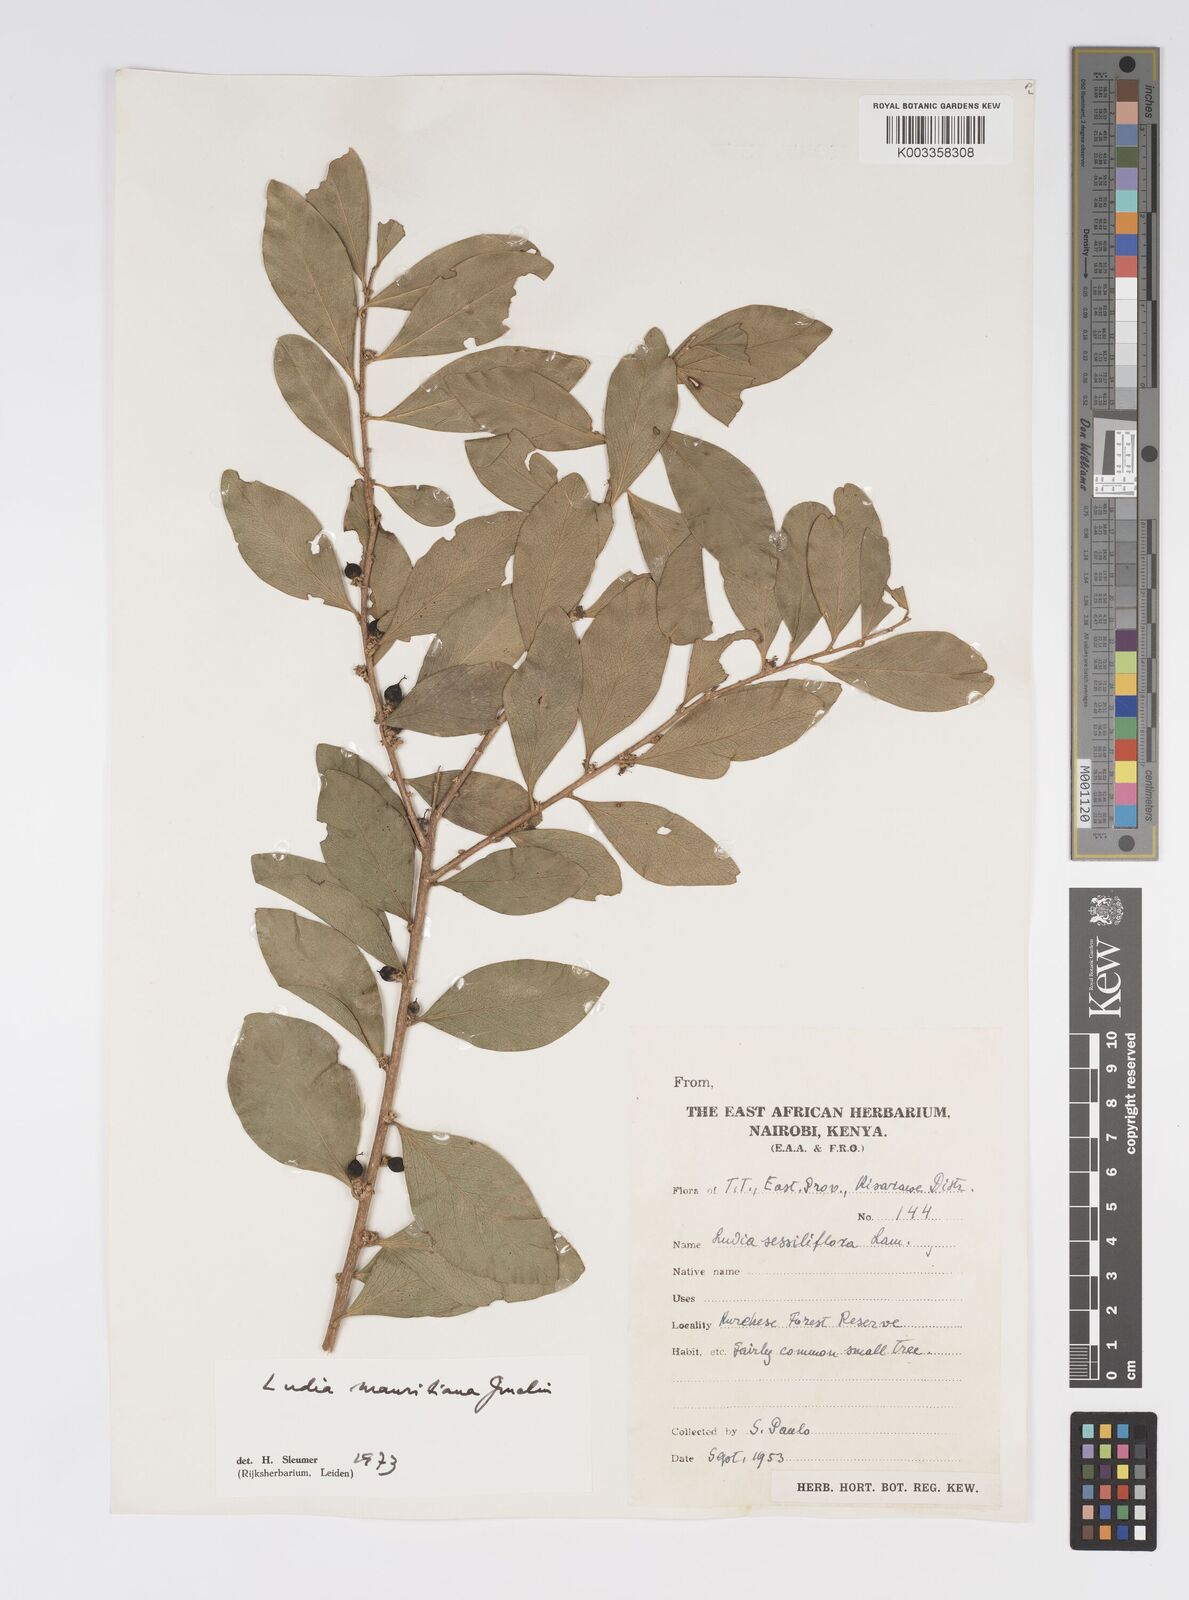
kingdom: Plantae
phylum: Tracheophyta
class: Magnoliopsida
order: Malpighiales
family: Salicaceae
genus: Ludia
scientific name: Ludia mauritiana
